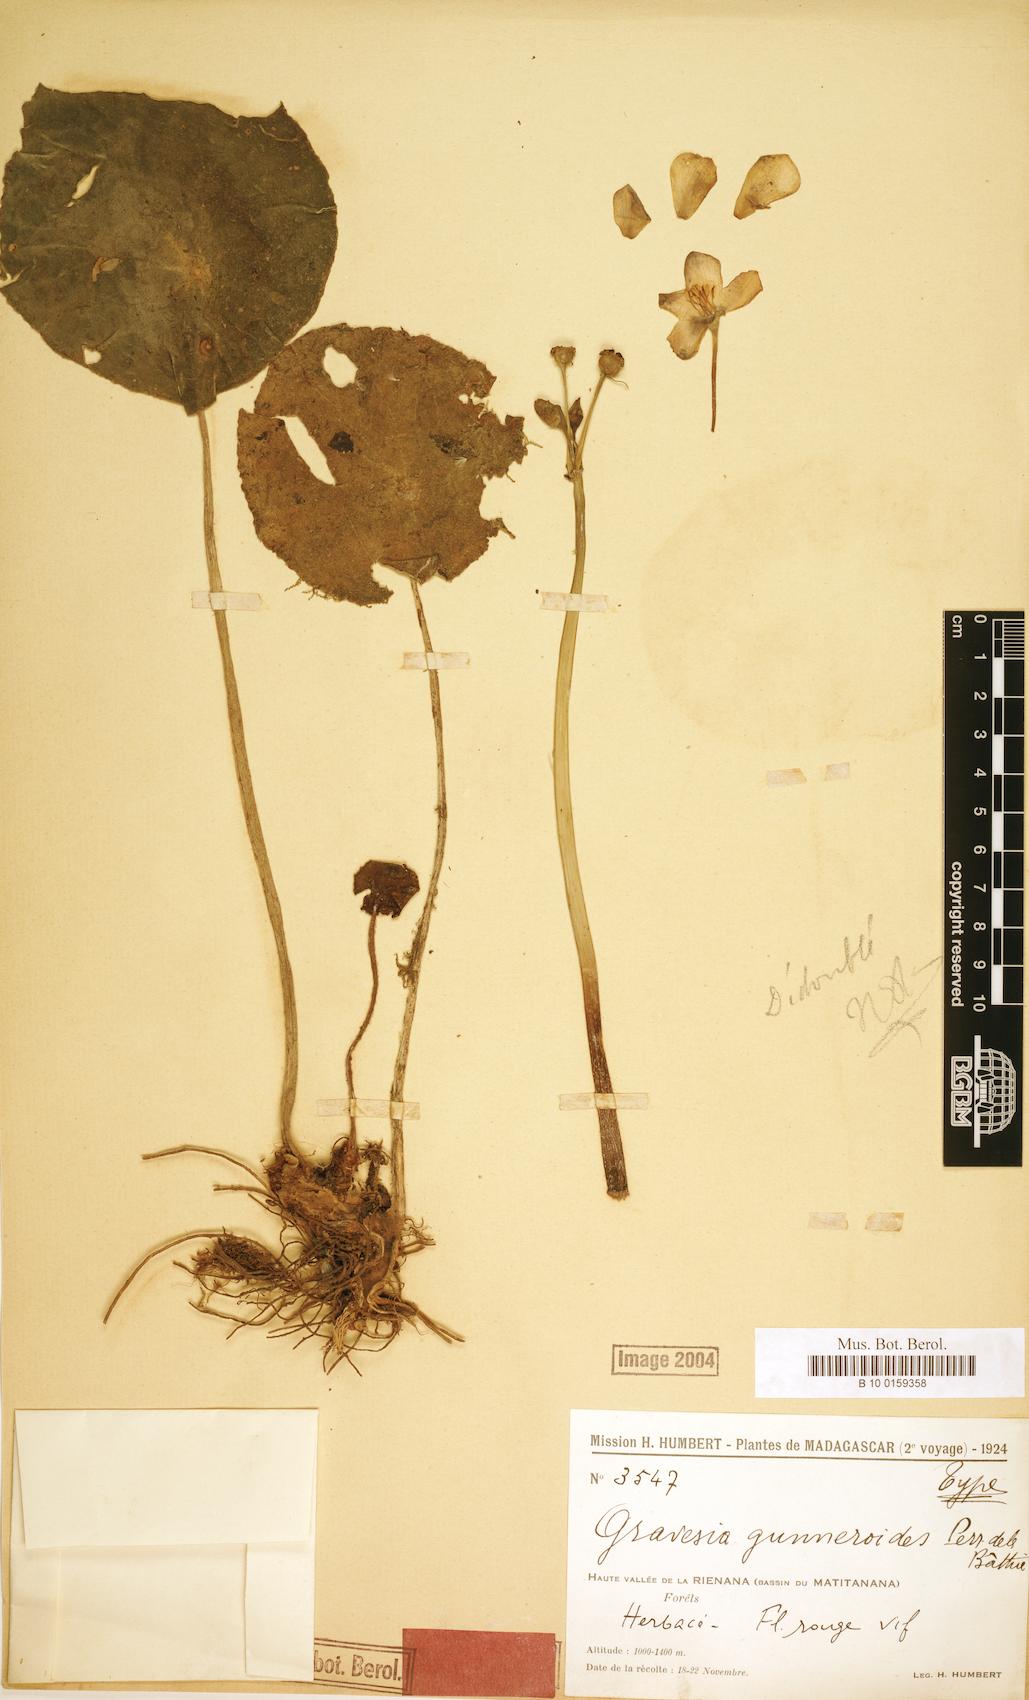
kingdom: Plantae
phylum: Tracheophyta
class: Magnoliopsida
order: Myrtales
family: Melastomataceae
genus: Gravesia
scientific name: Gravesia gunneroides
